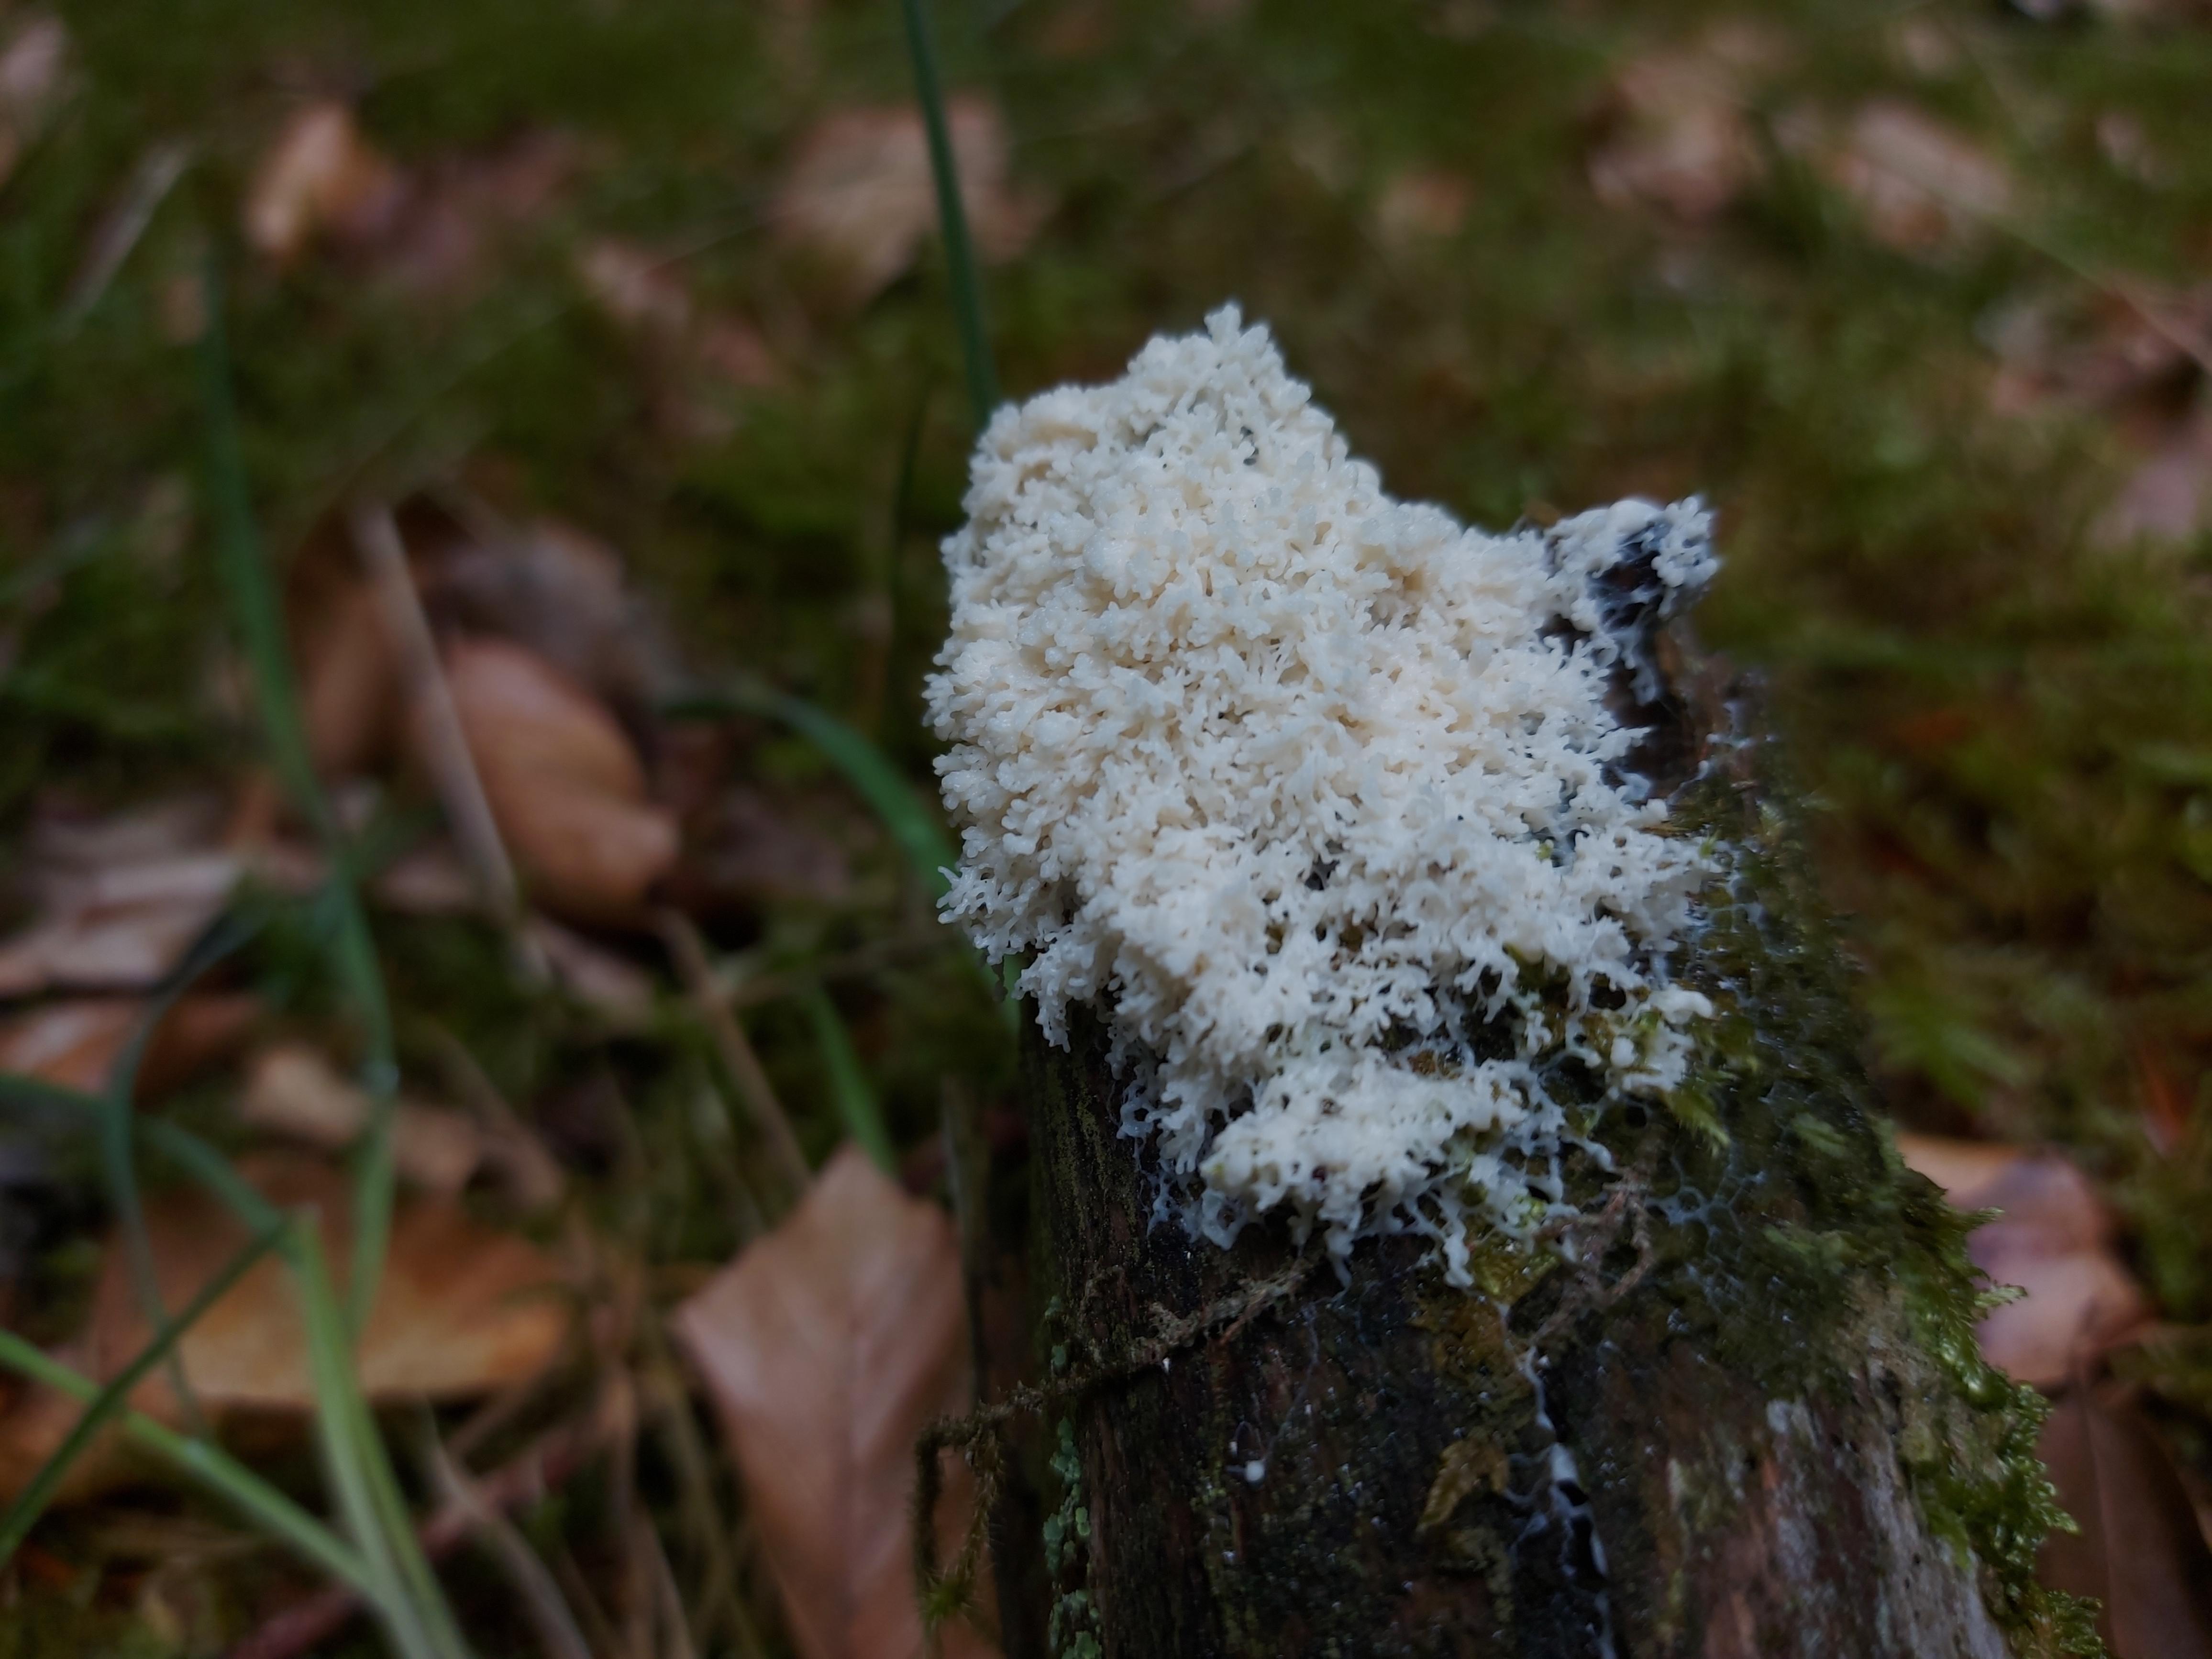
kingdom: Protozoa
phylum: Mycetozoa
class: Myxomycetes
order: Physarales
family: Physaraceae
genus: Fuligo
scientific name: Fuligo
